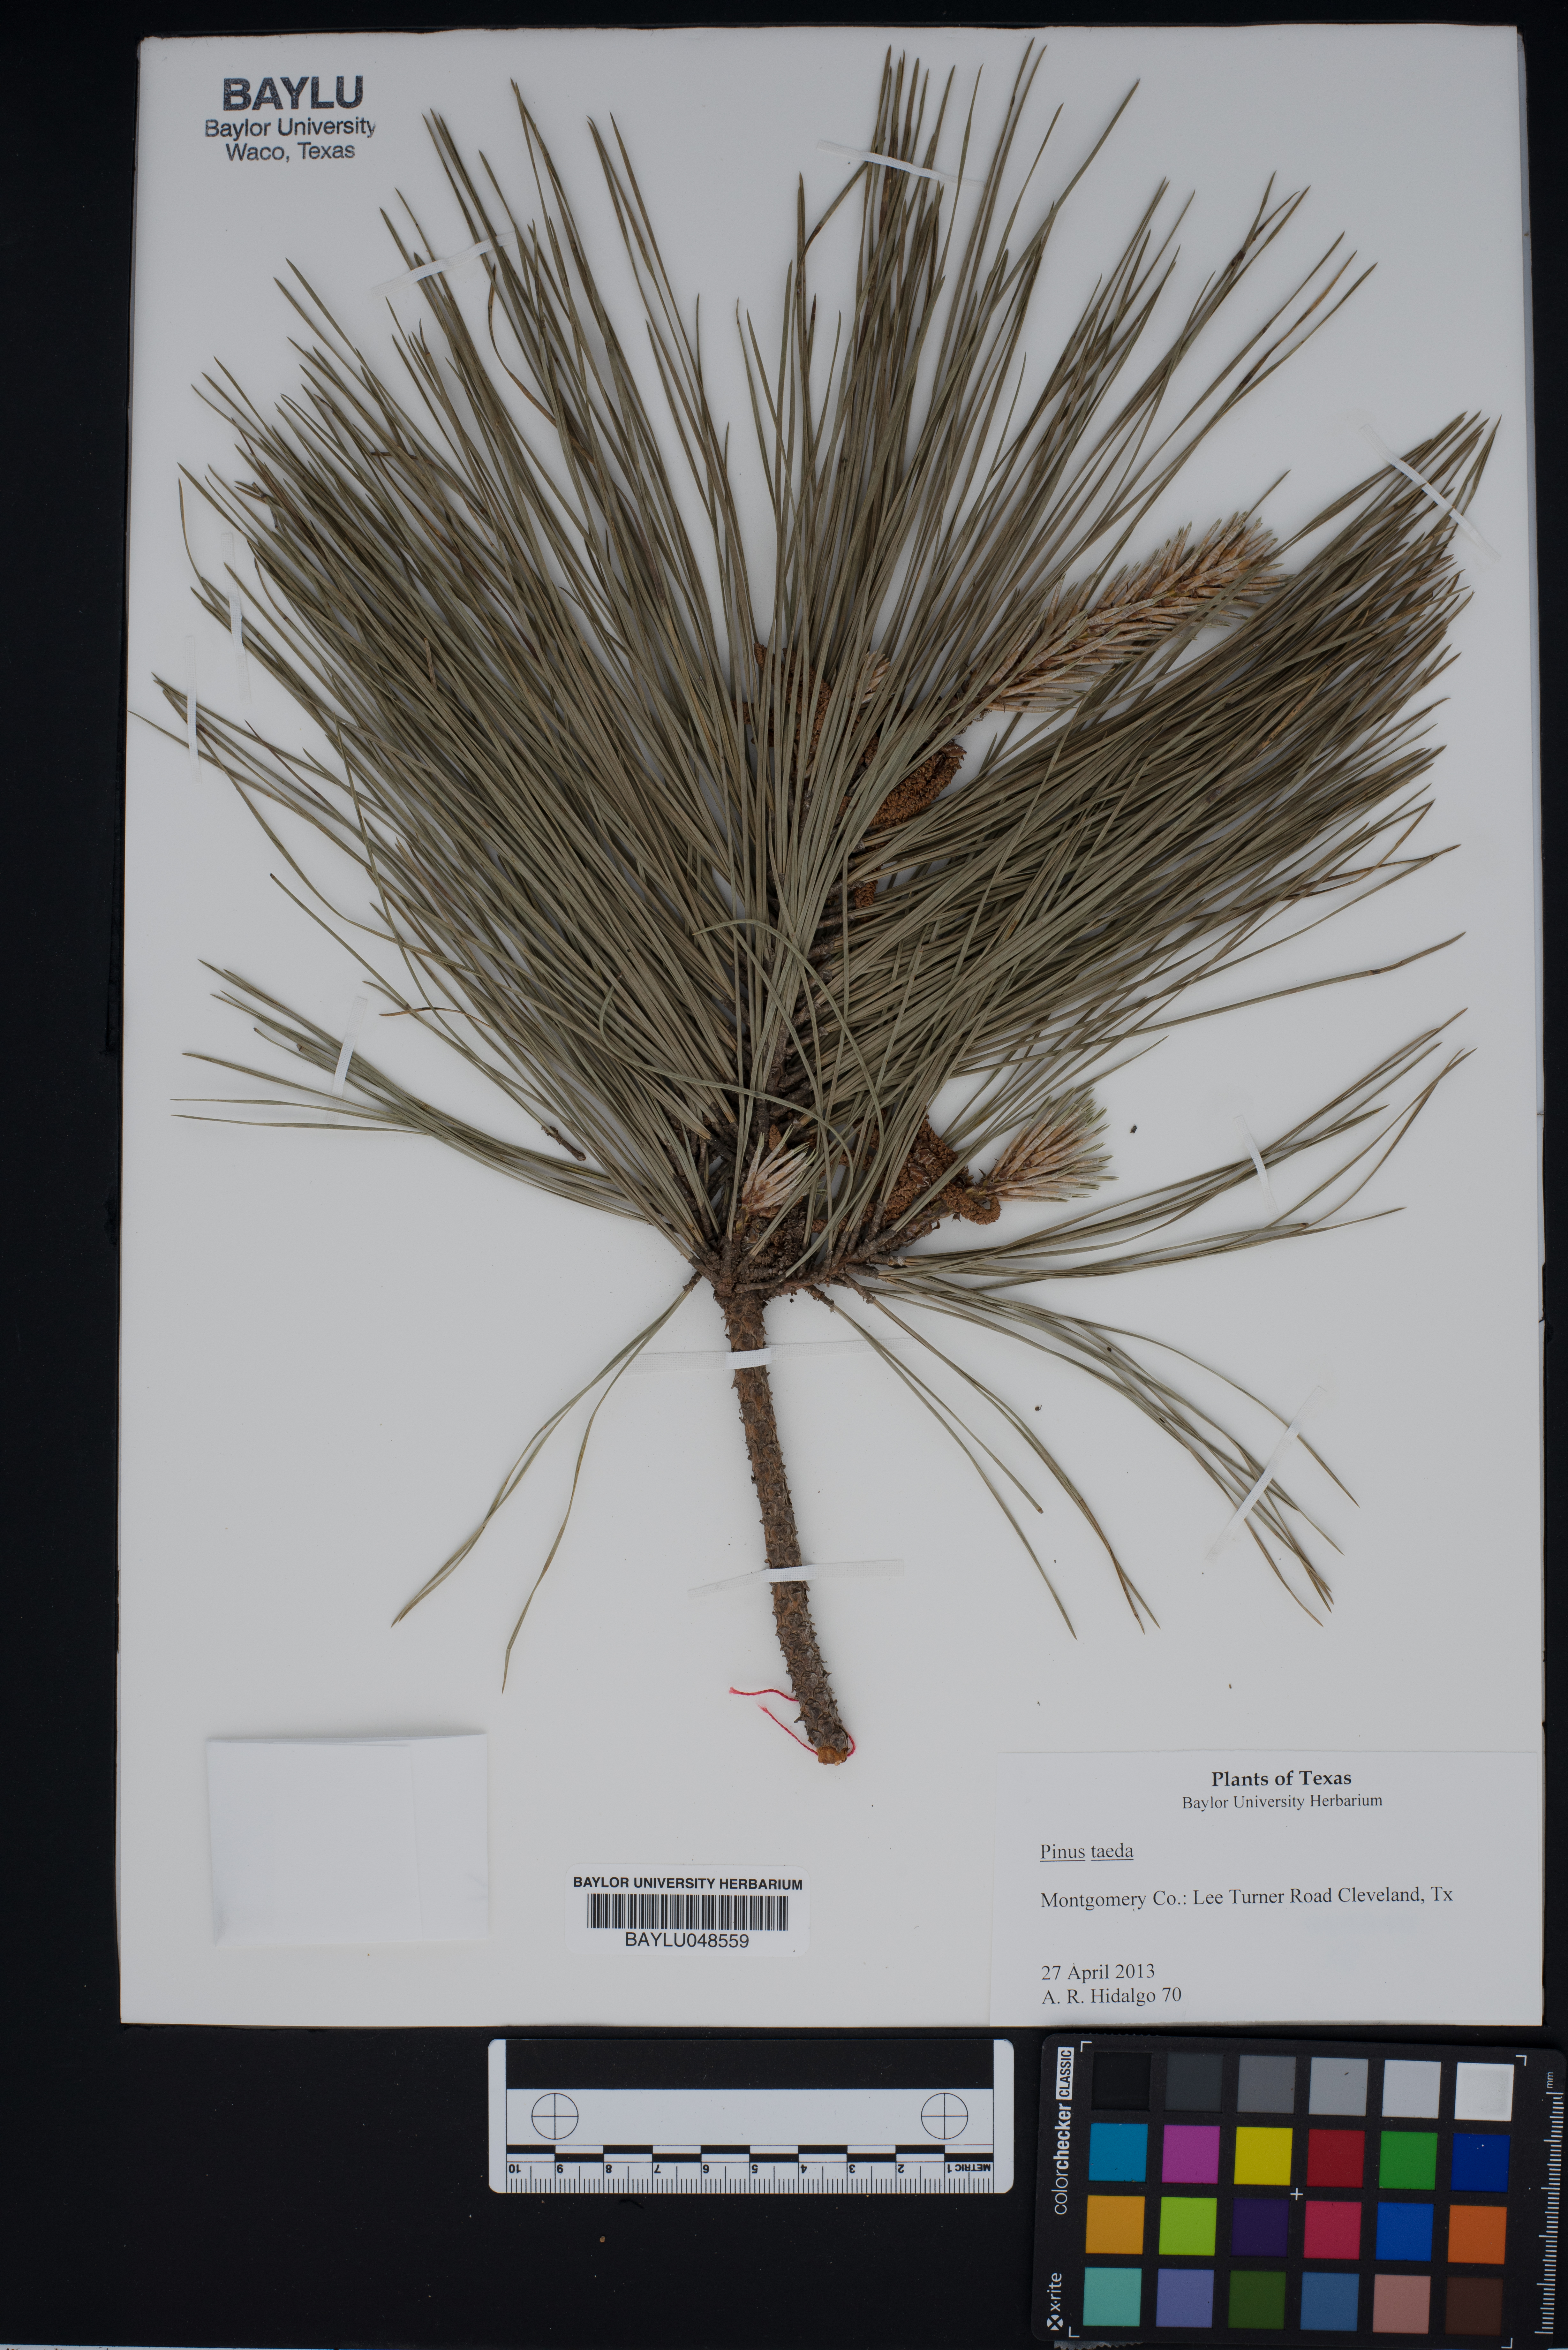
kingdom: Plantae
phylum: Tracheophyta
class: Pinopsida
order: Pinales
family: Pinaceae
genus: Pinus
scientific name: Pinus taeda
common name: Loblolly pine
